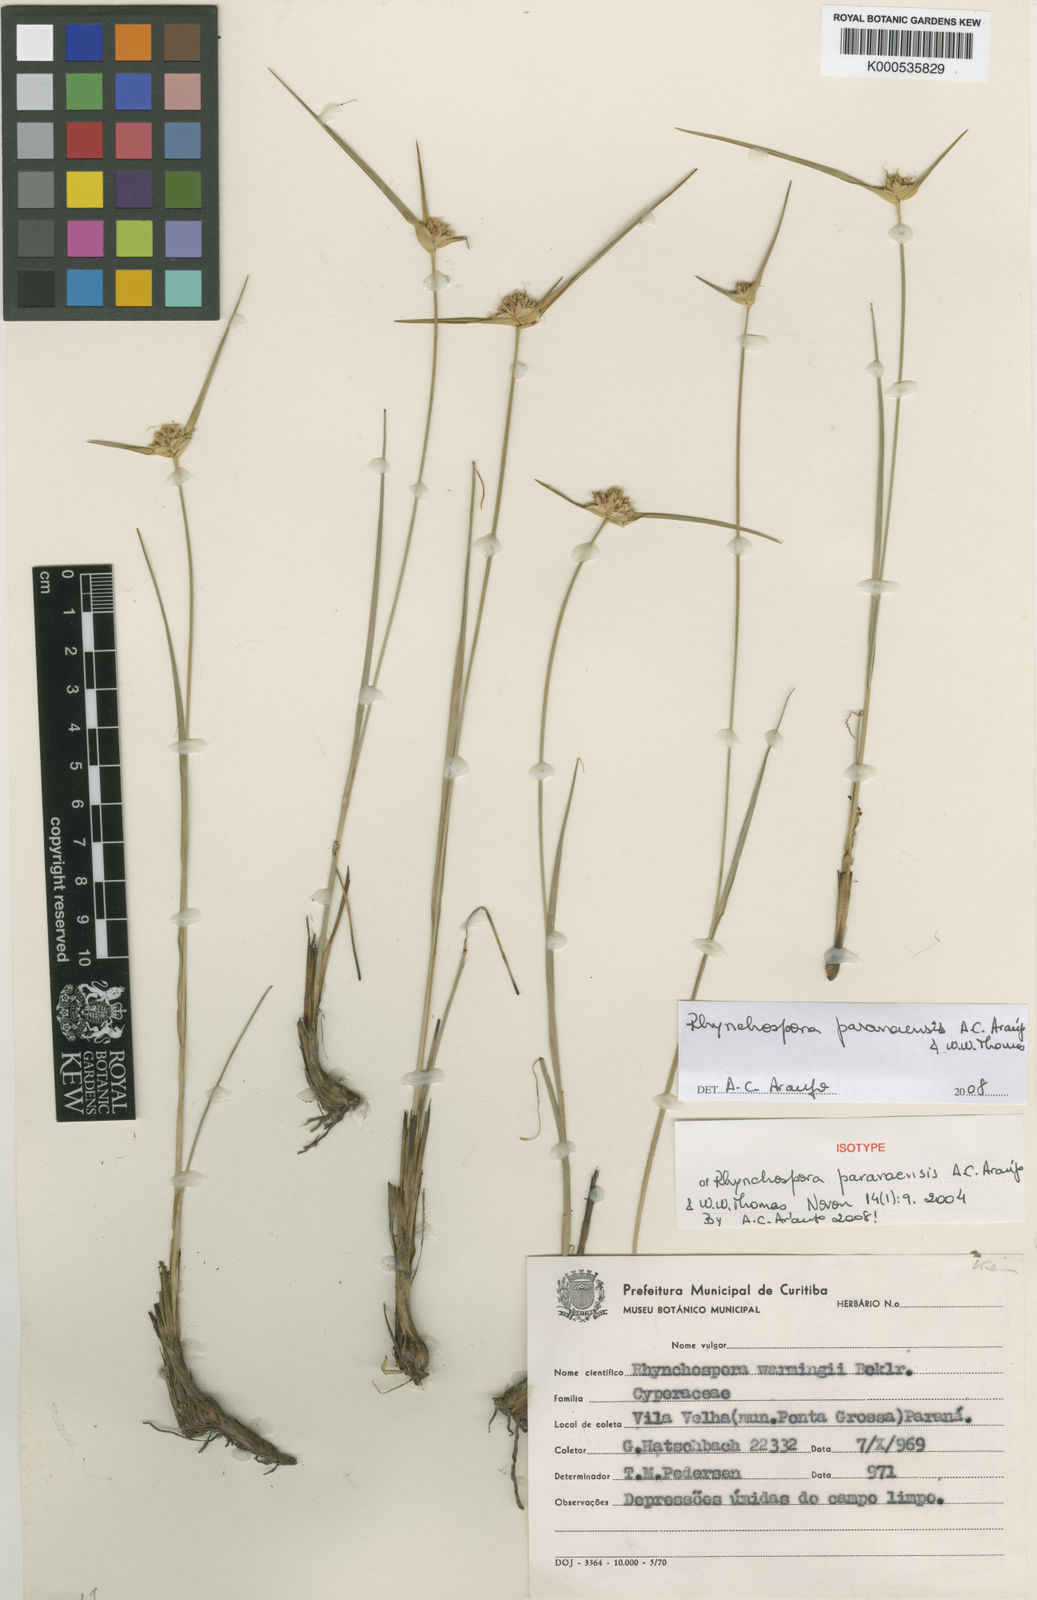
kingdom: Plantae
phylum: Tracheophyta
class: Liliopsida
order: Poales
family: Cyperaceae
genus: Rhynchospora
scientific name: Rhynchospora paranaensis
